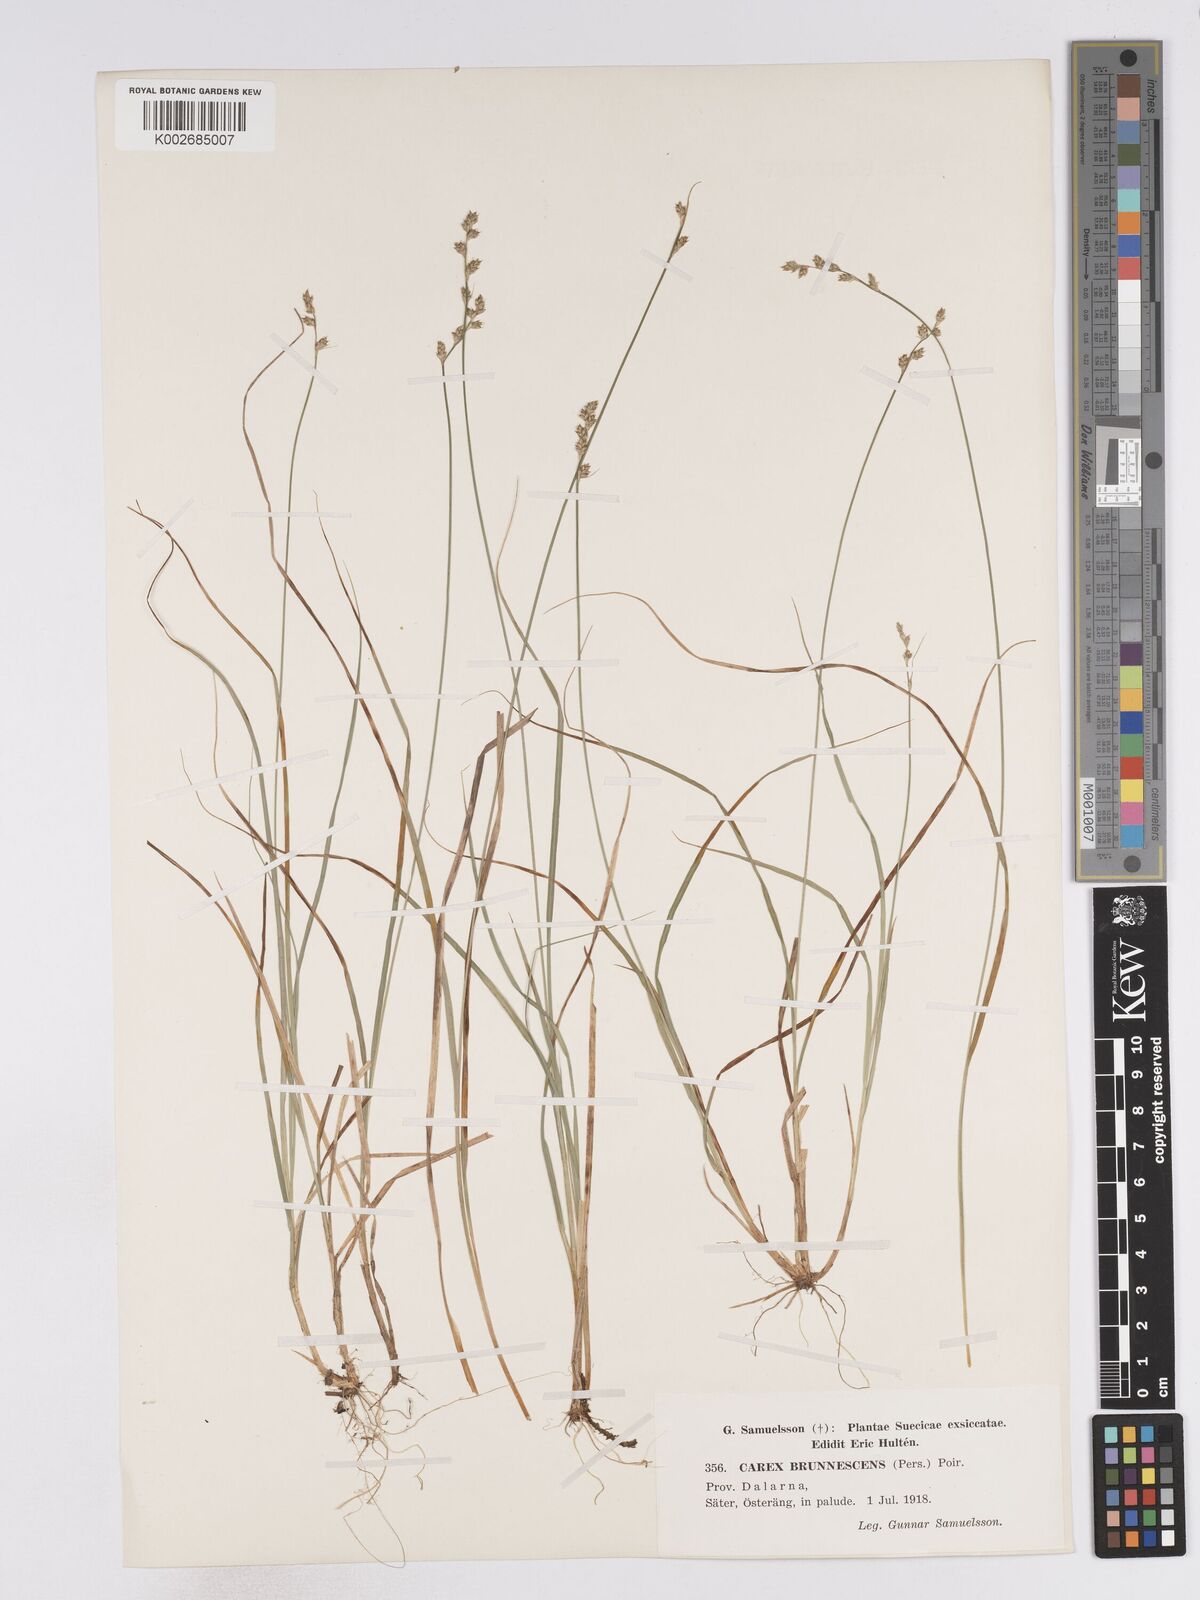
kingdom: Plantae
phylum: Tracheophyta
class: Liliopsida
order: Poales
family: Cyperaceae
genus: Carex
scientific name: Carex brunnescens
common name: Brown sedge
